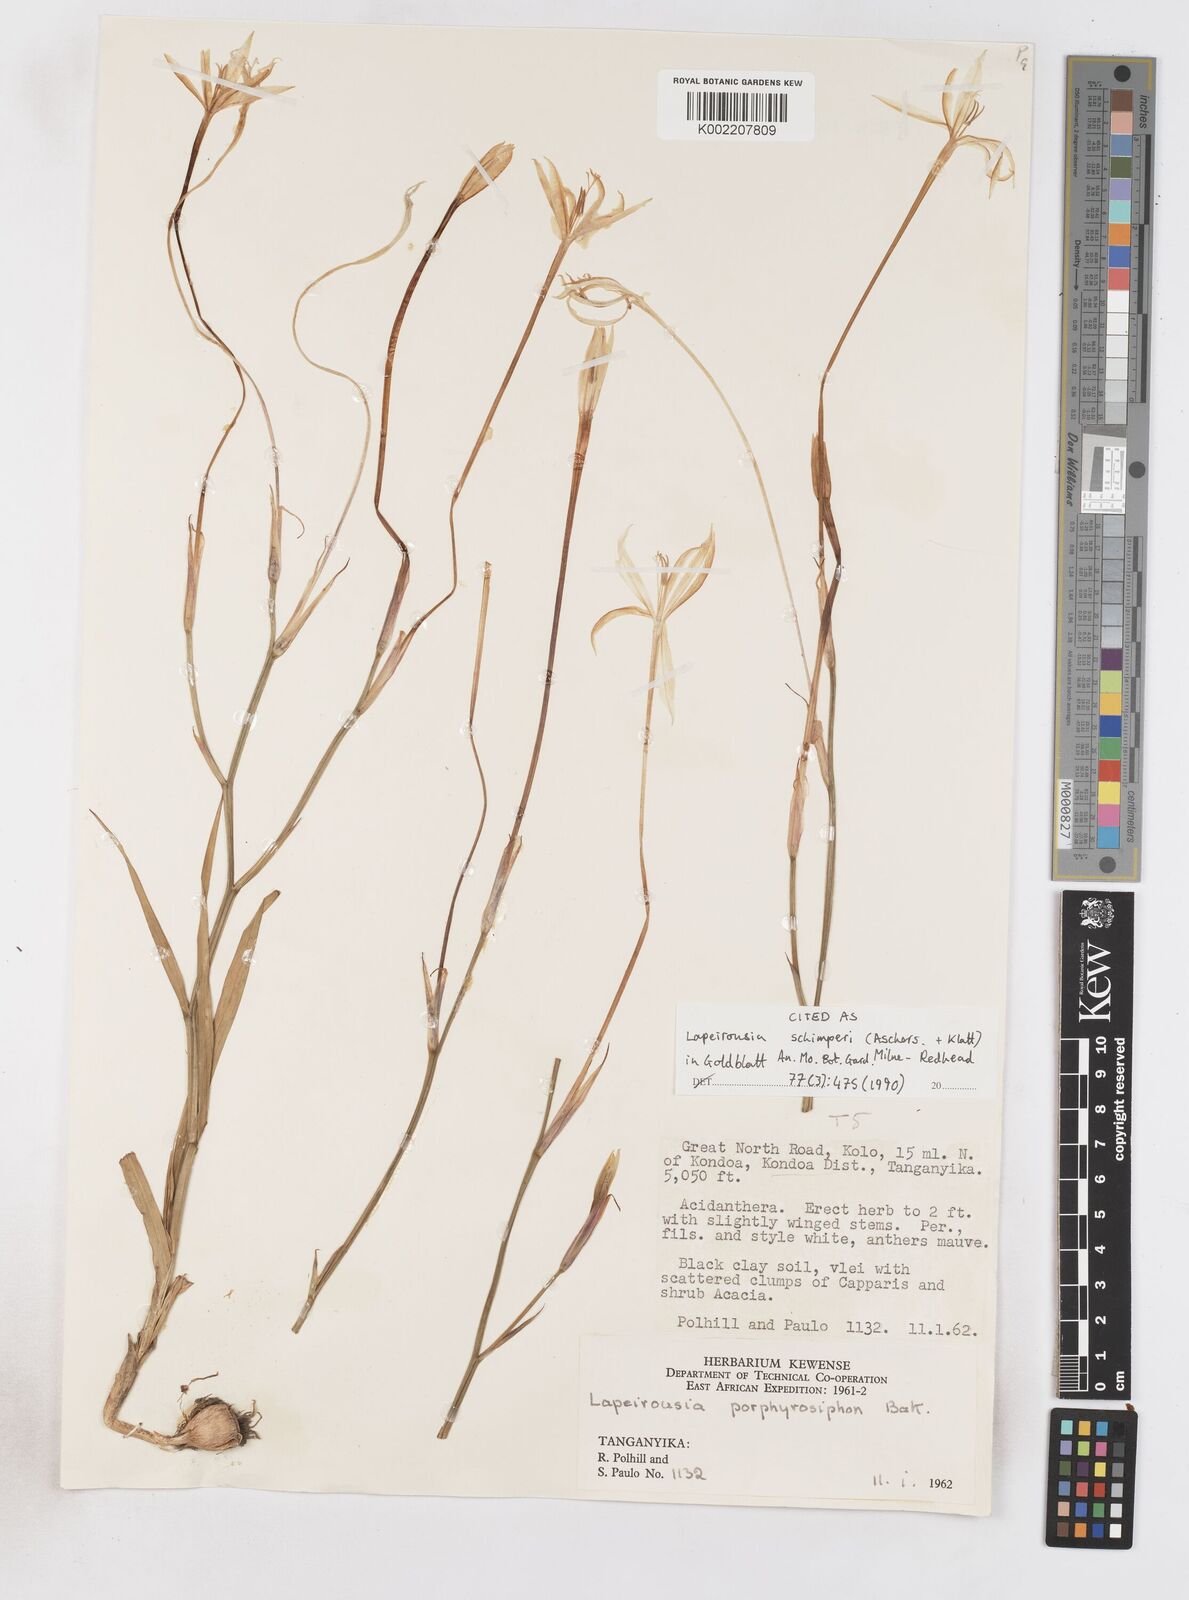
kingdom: Plantae
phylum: Tracheophyta
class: Liliopsida
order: Asparagales
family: Iridaceae
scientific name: Iridaceae
